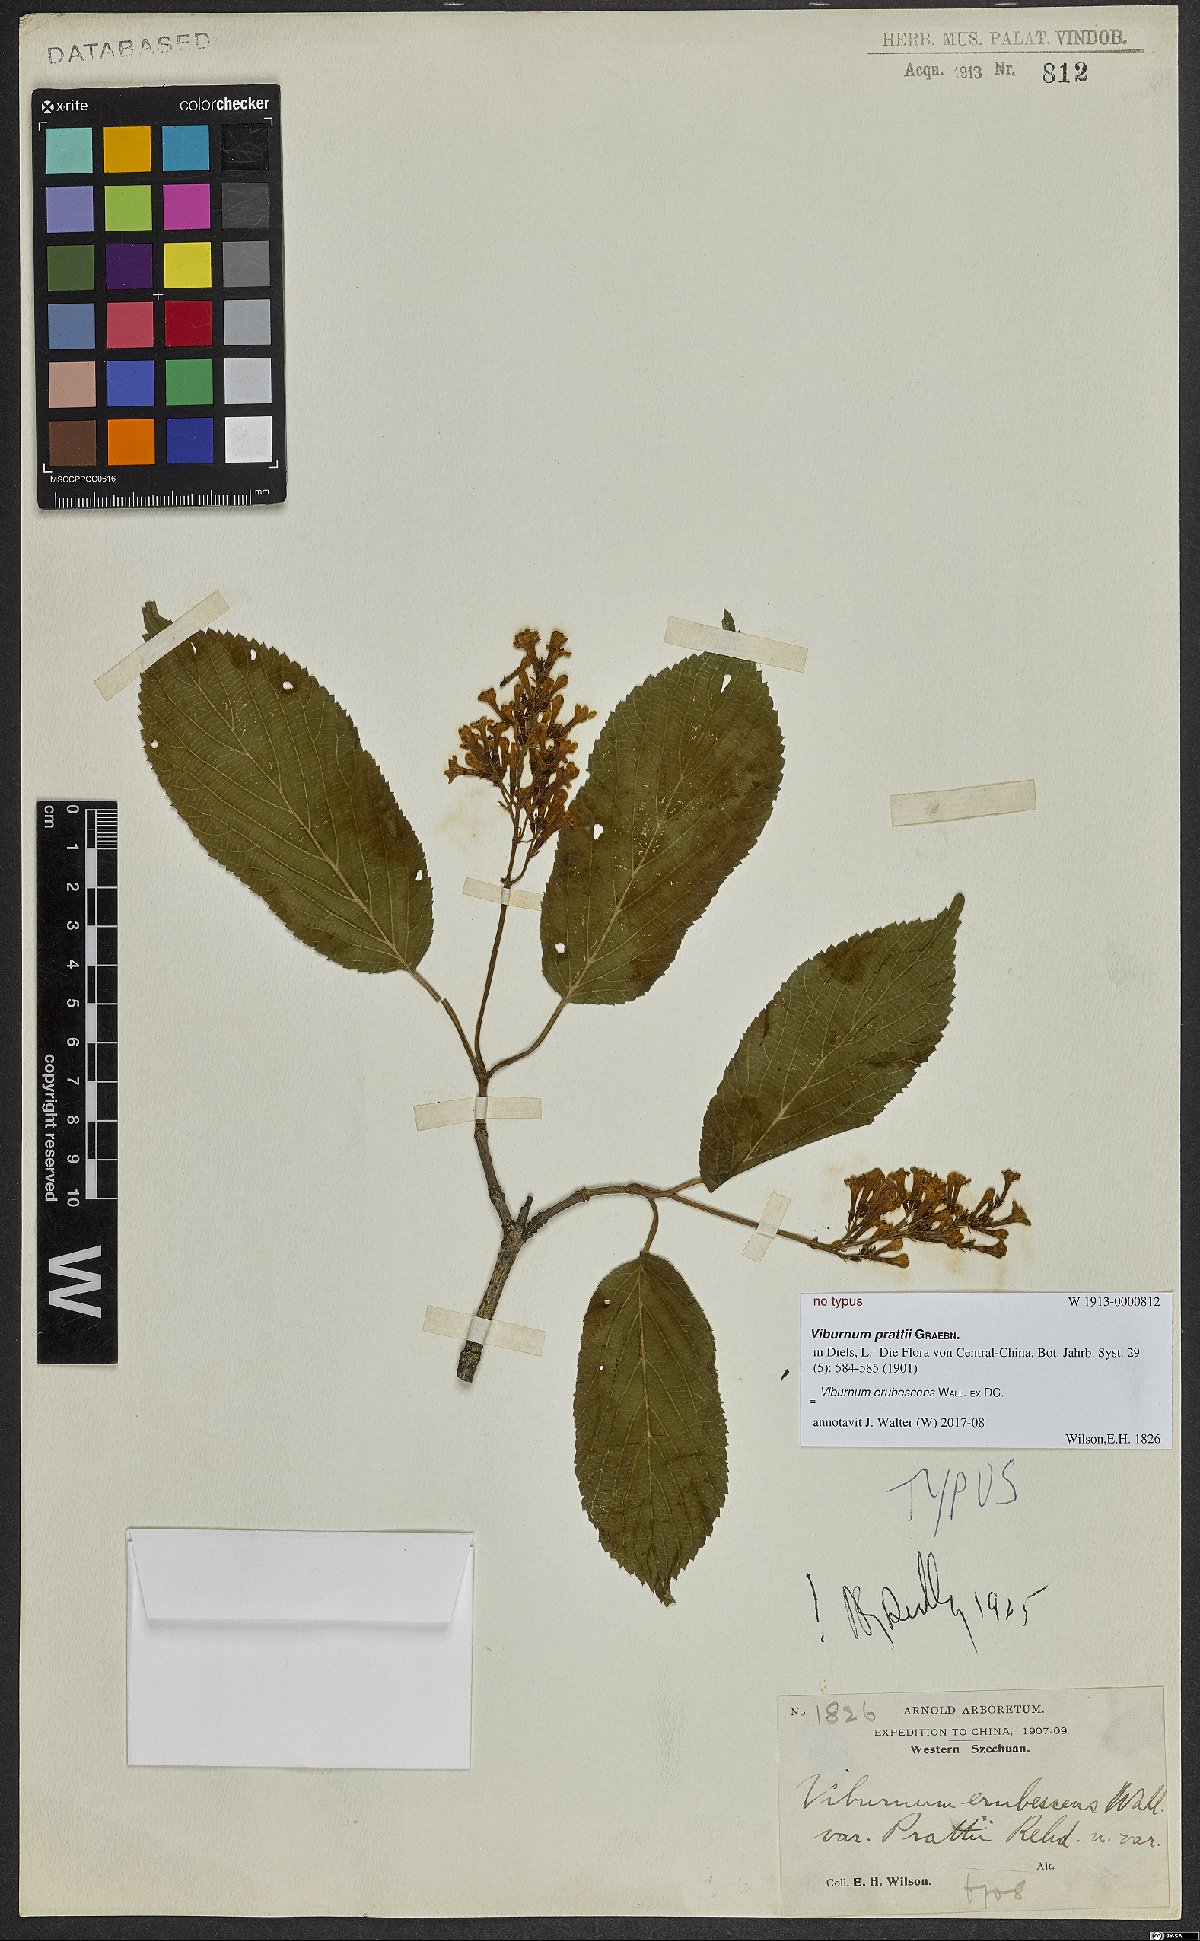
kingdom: Plantae
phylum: Tracheophyta
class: Magnoliopsida
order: Dipsacales
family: Viburnaceae
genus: Viburnum
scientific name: Viburnum erubescens
